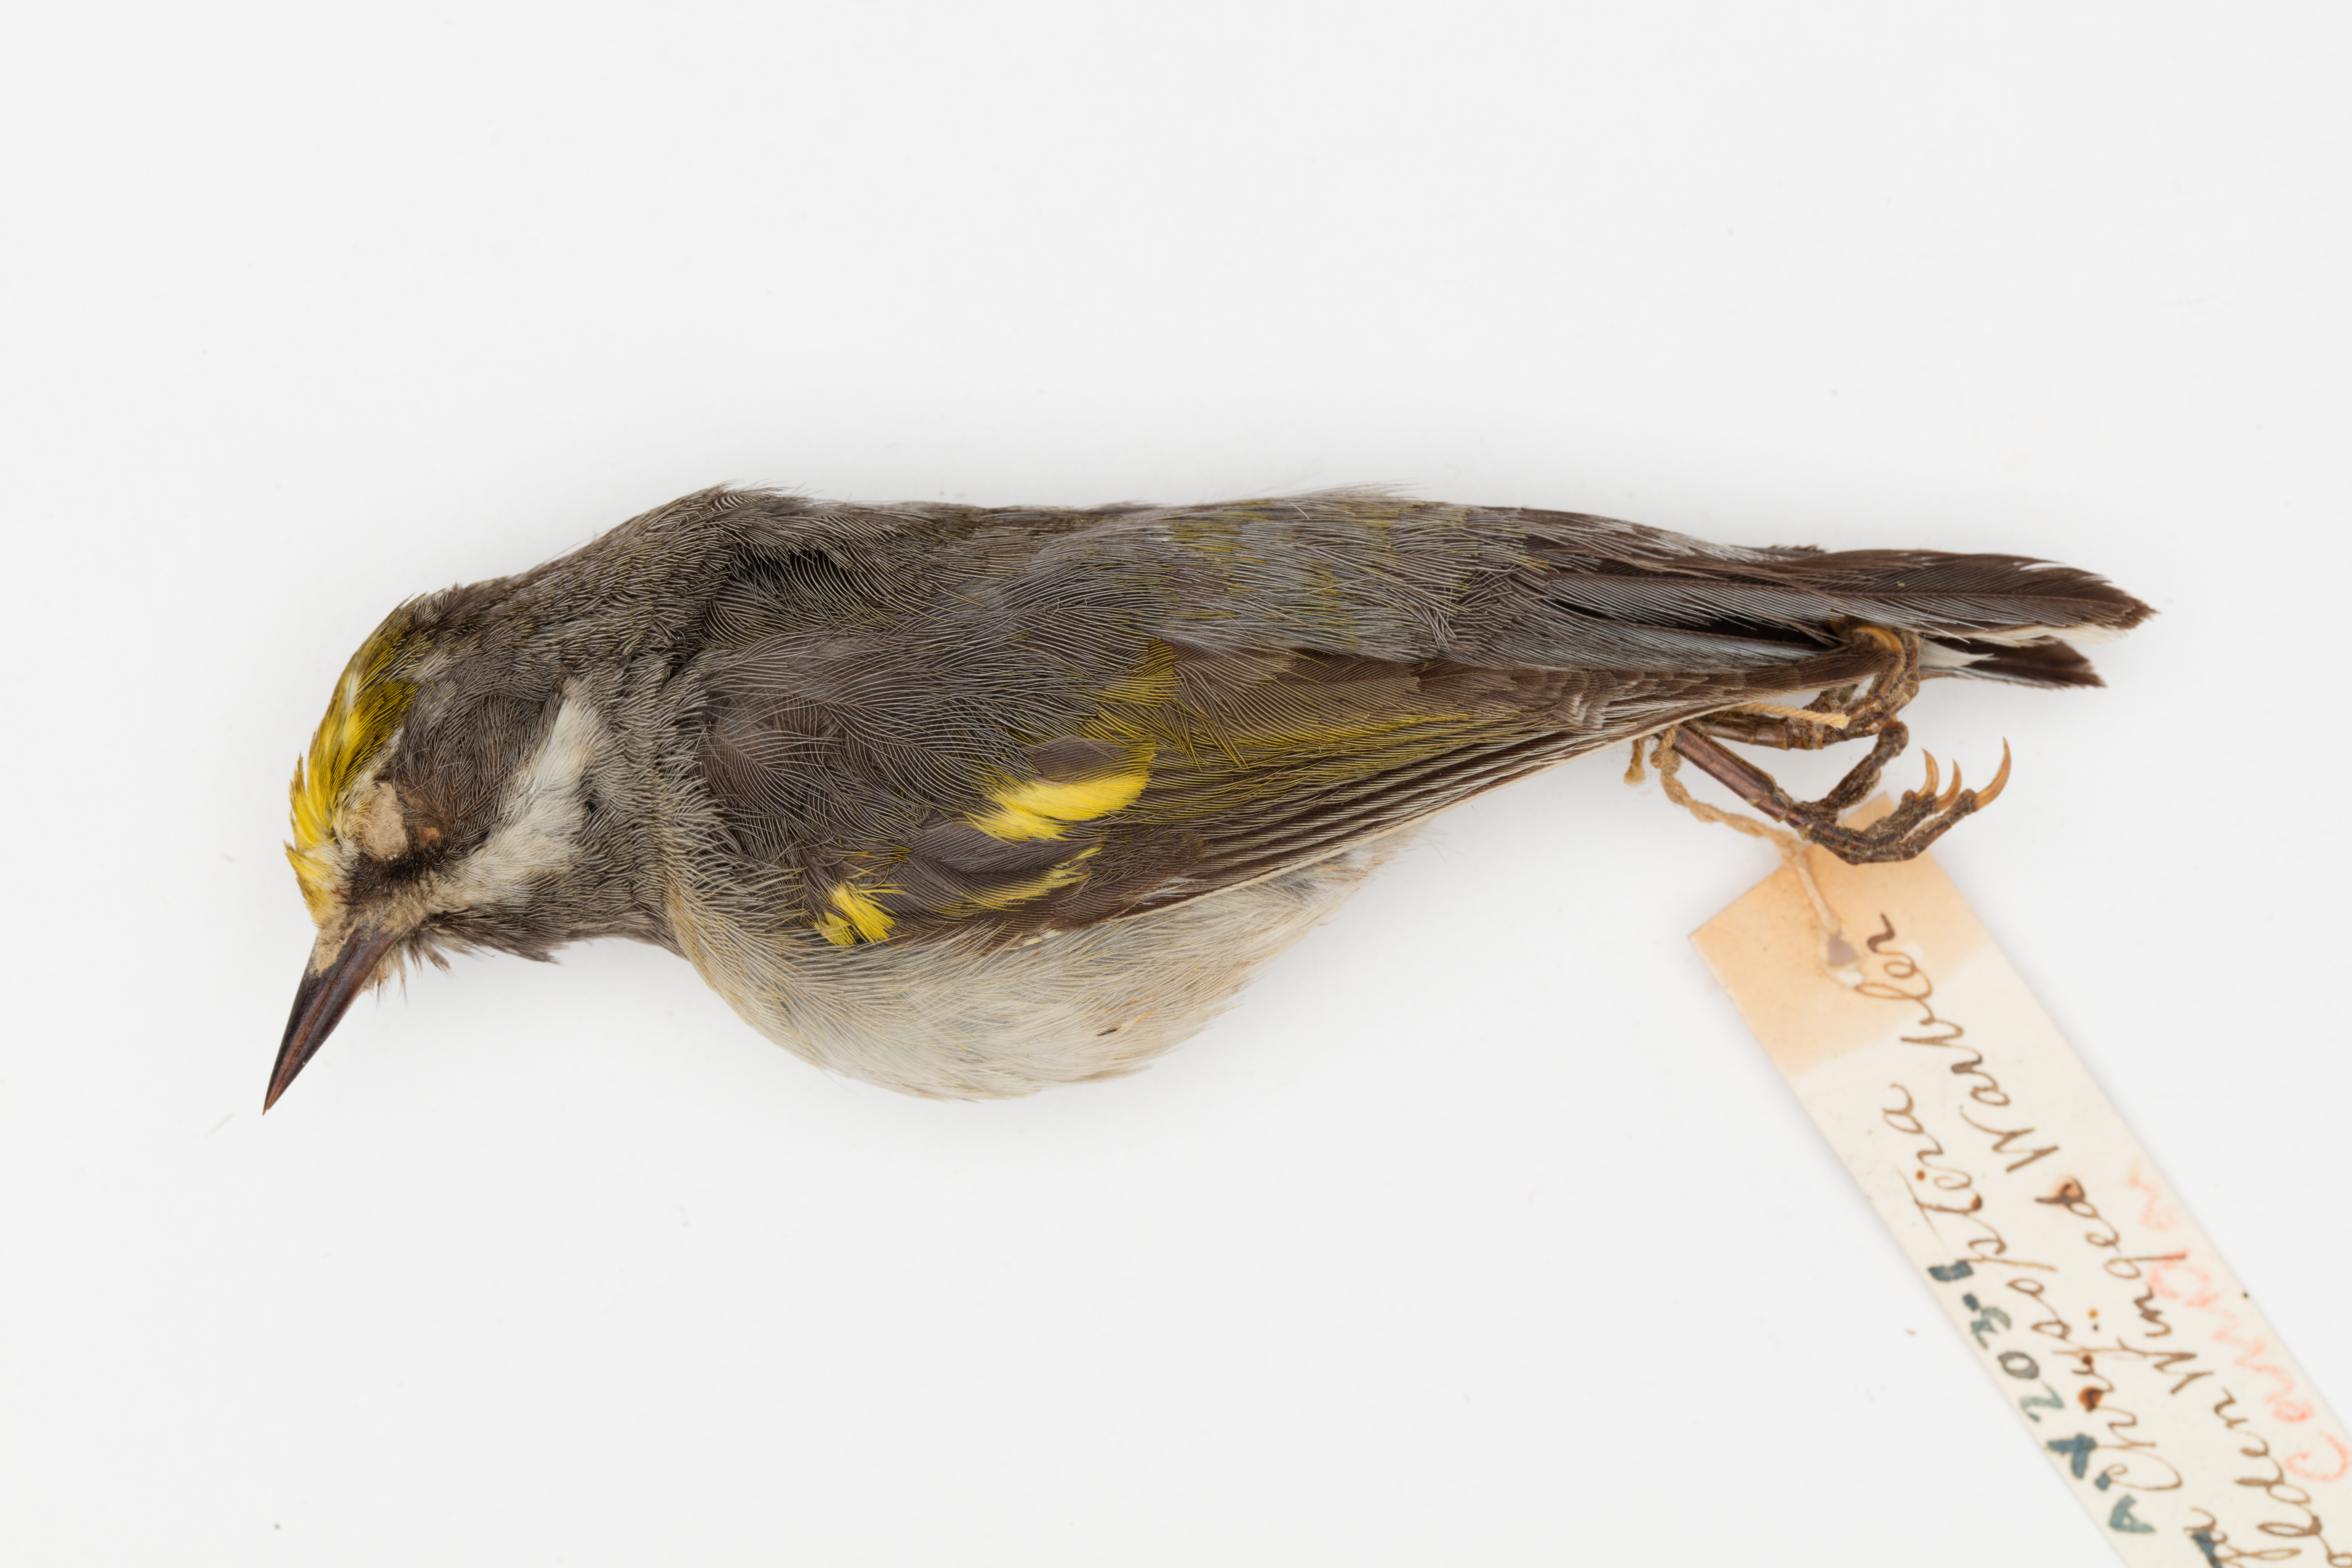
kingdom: Animalia
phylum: Chordata
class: Aves
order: Passeriformes
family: Parulidae
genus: Vermivora
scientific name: Vermivora chrysoptera
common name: Golden-winged warbler
